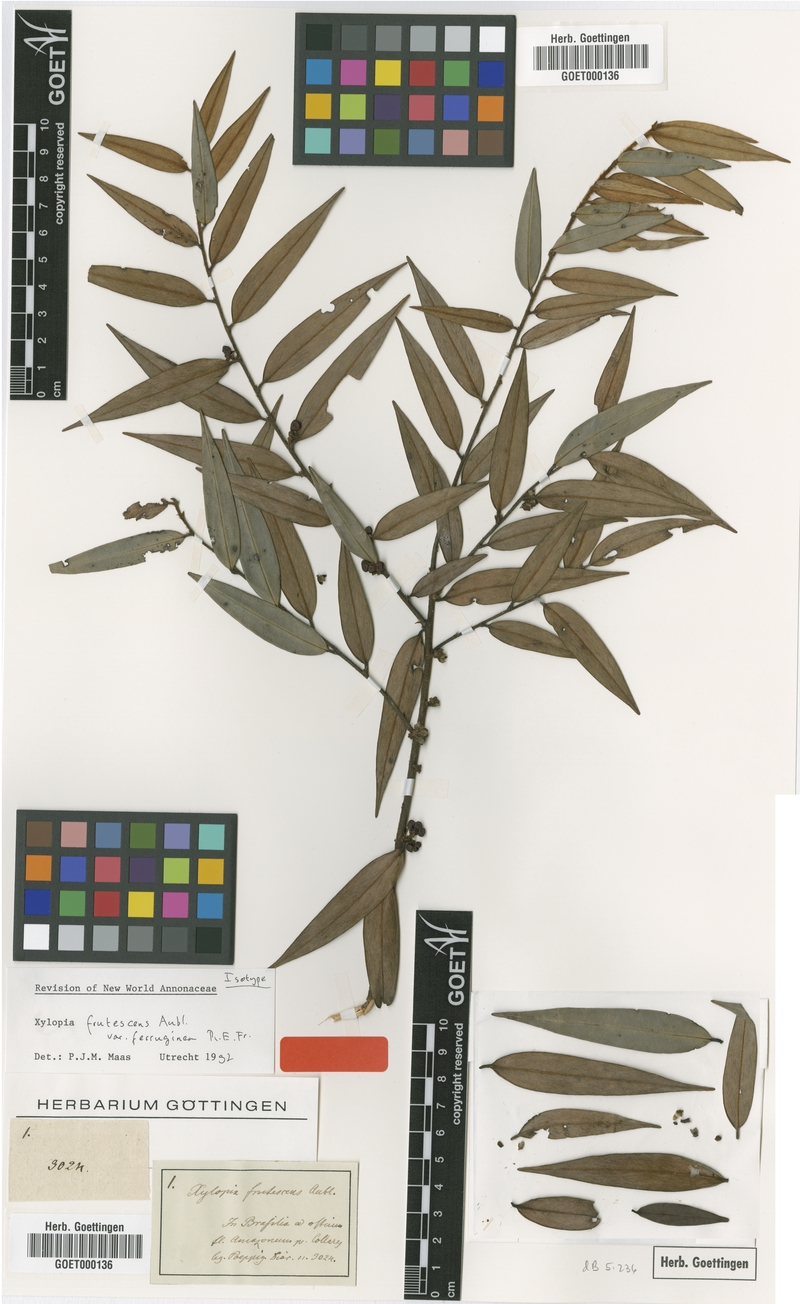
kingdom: Plantae
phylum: Tracheophyta
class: Magnoliopsida
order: Magnoliales
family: Annonaceae
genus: Xylopia
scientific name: Xylopia frutescens
